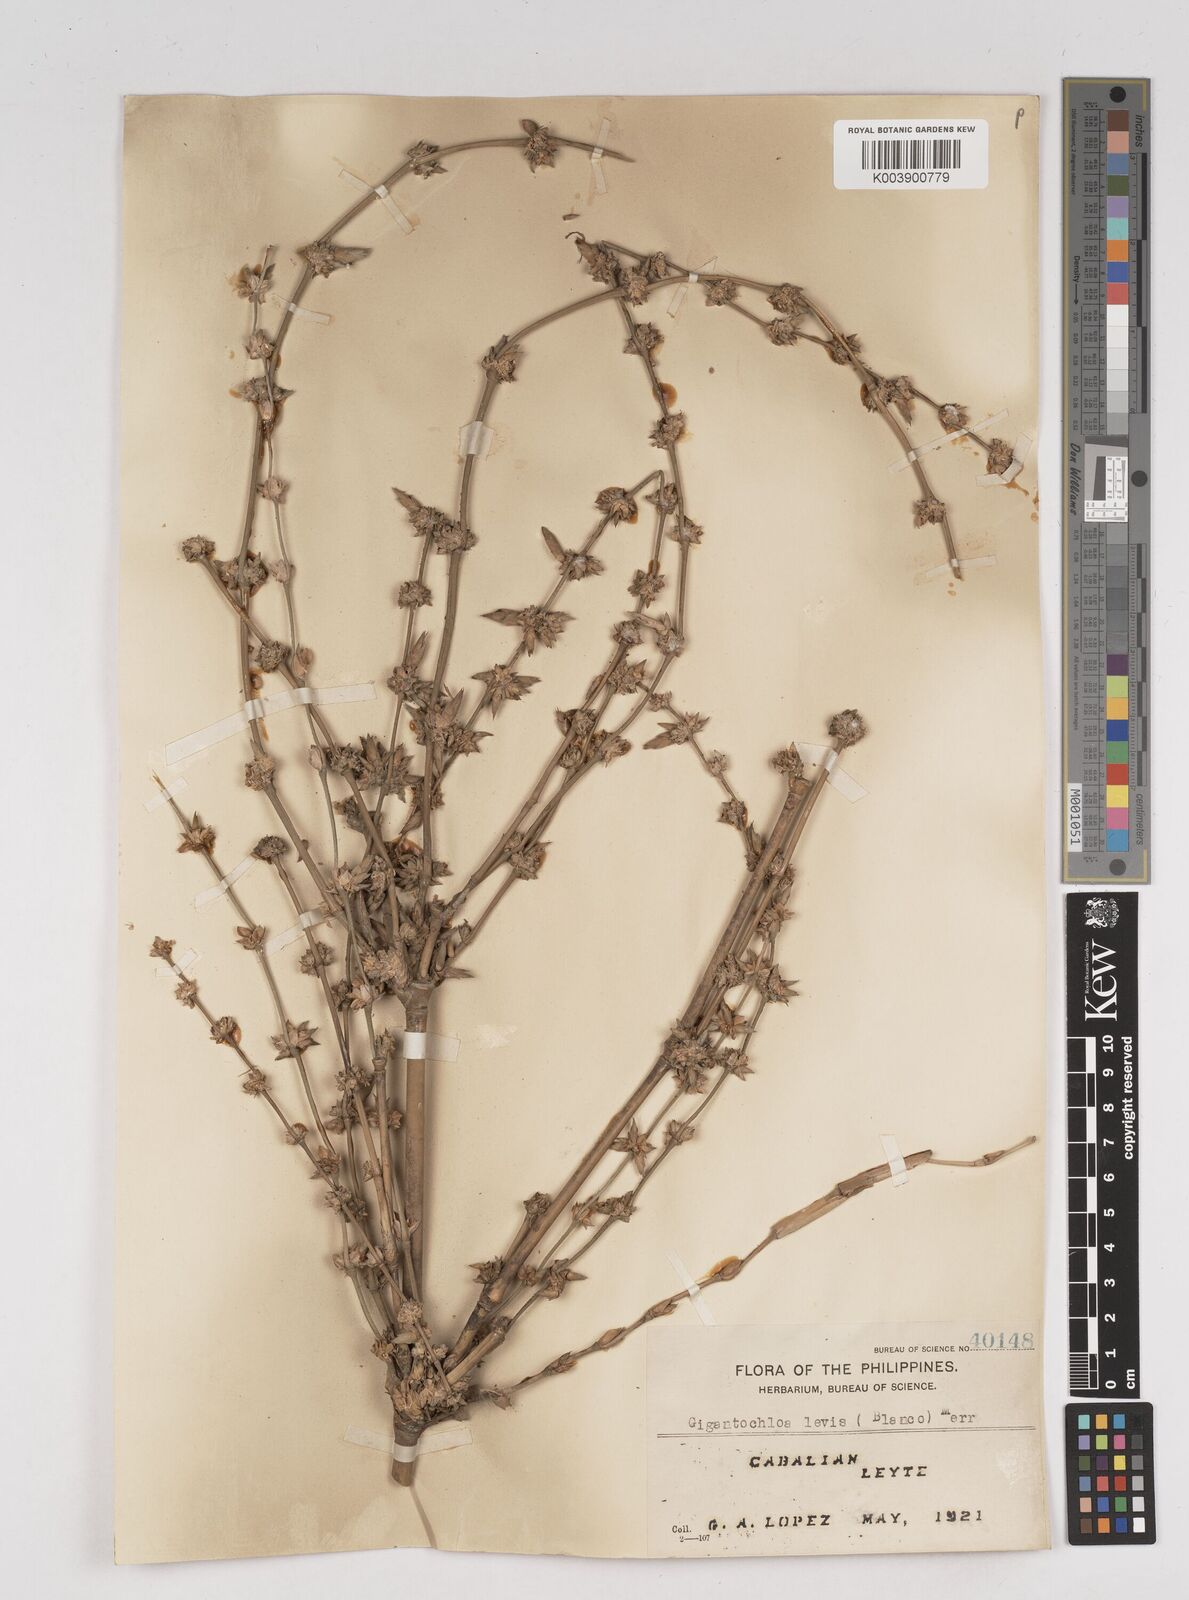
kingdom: Plantae
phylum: Tracheophyta
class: Liliopsida
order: Poales
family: Poaceae
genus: Gigantochloa
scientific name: Gigantochloa levis
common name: Smooth-shoot gigantochloa
